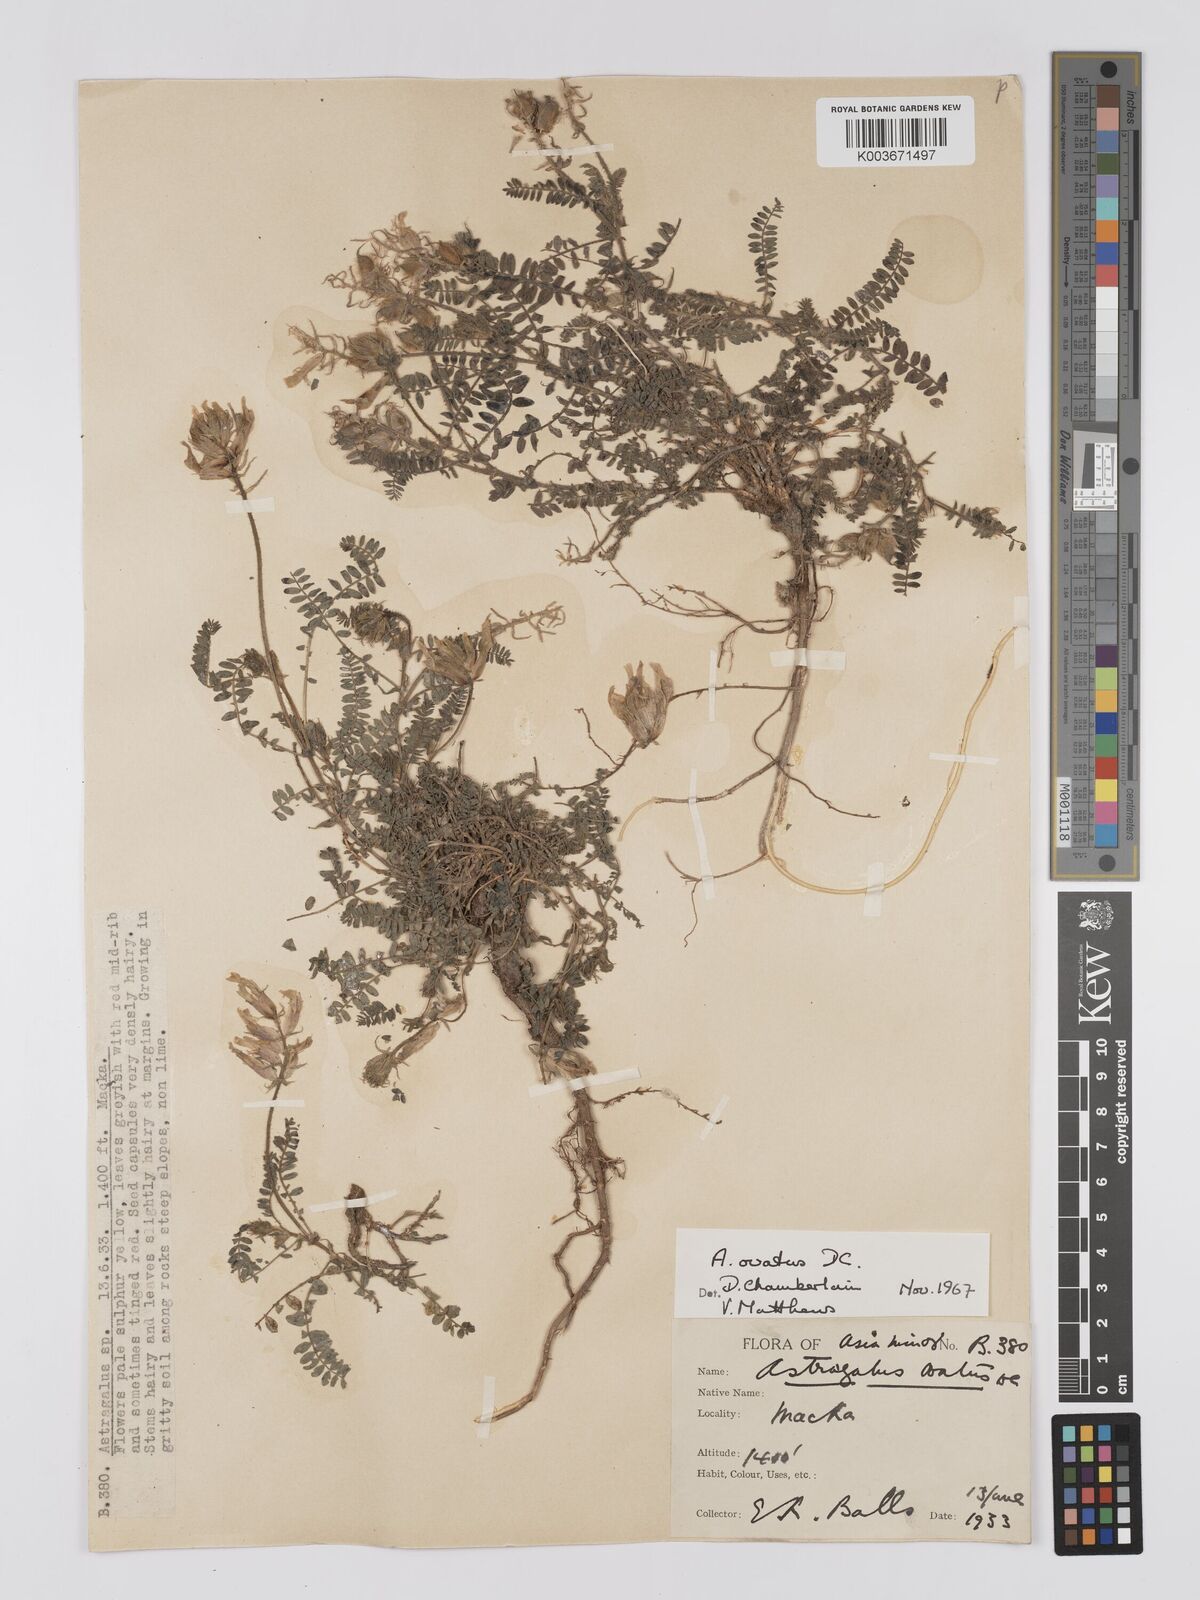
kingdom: Plantae
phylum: Tracheophyta
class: Magnoliopsida
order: Fabales
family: Fabaceae
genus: Astragalus
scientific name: Astragalus ovatus
